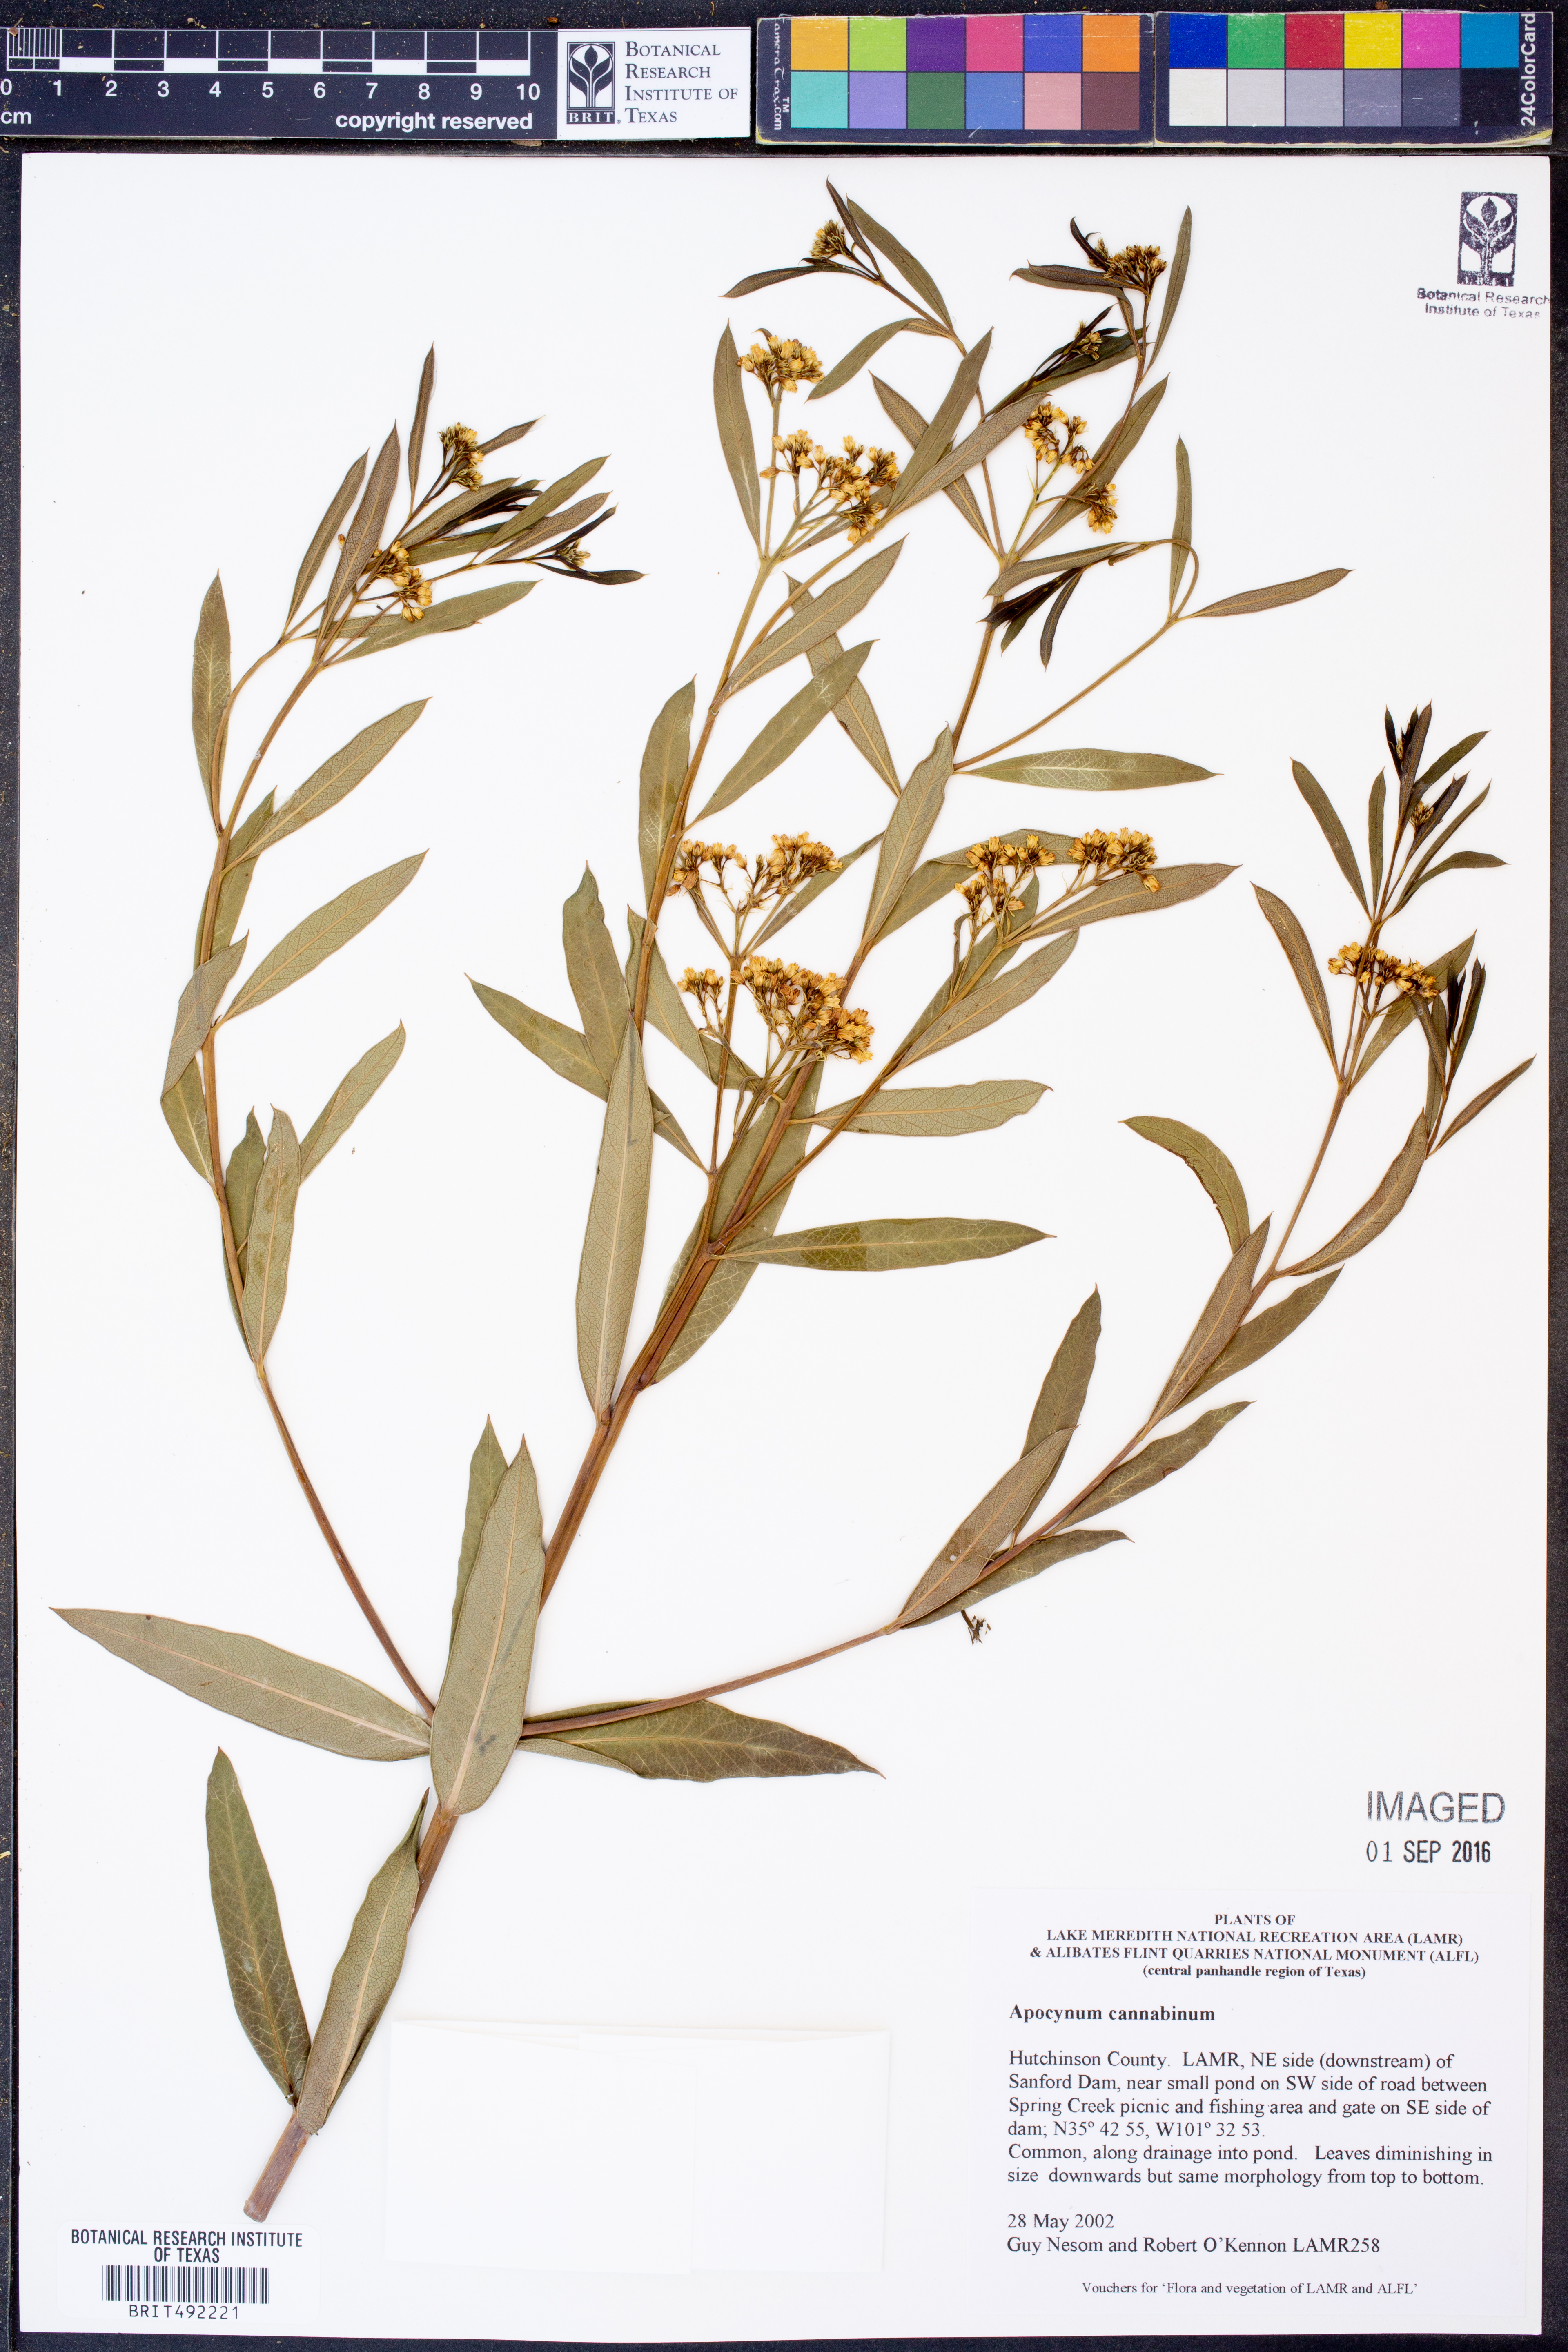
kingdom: Plantae
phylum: Tracheophyta
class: Magnoliopsida
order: Gentianales
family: Apocynaceae
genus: Apocynum
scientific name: Apocynum cannabinum
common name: Hemp dogbane
